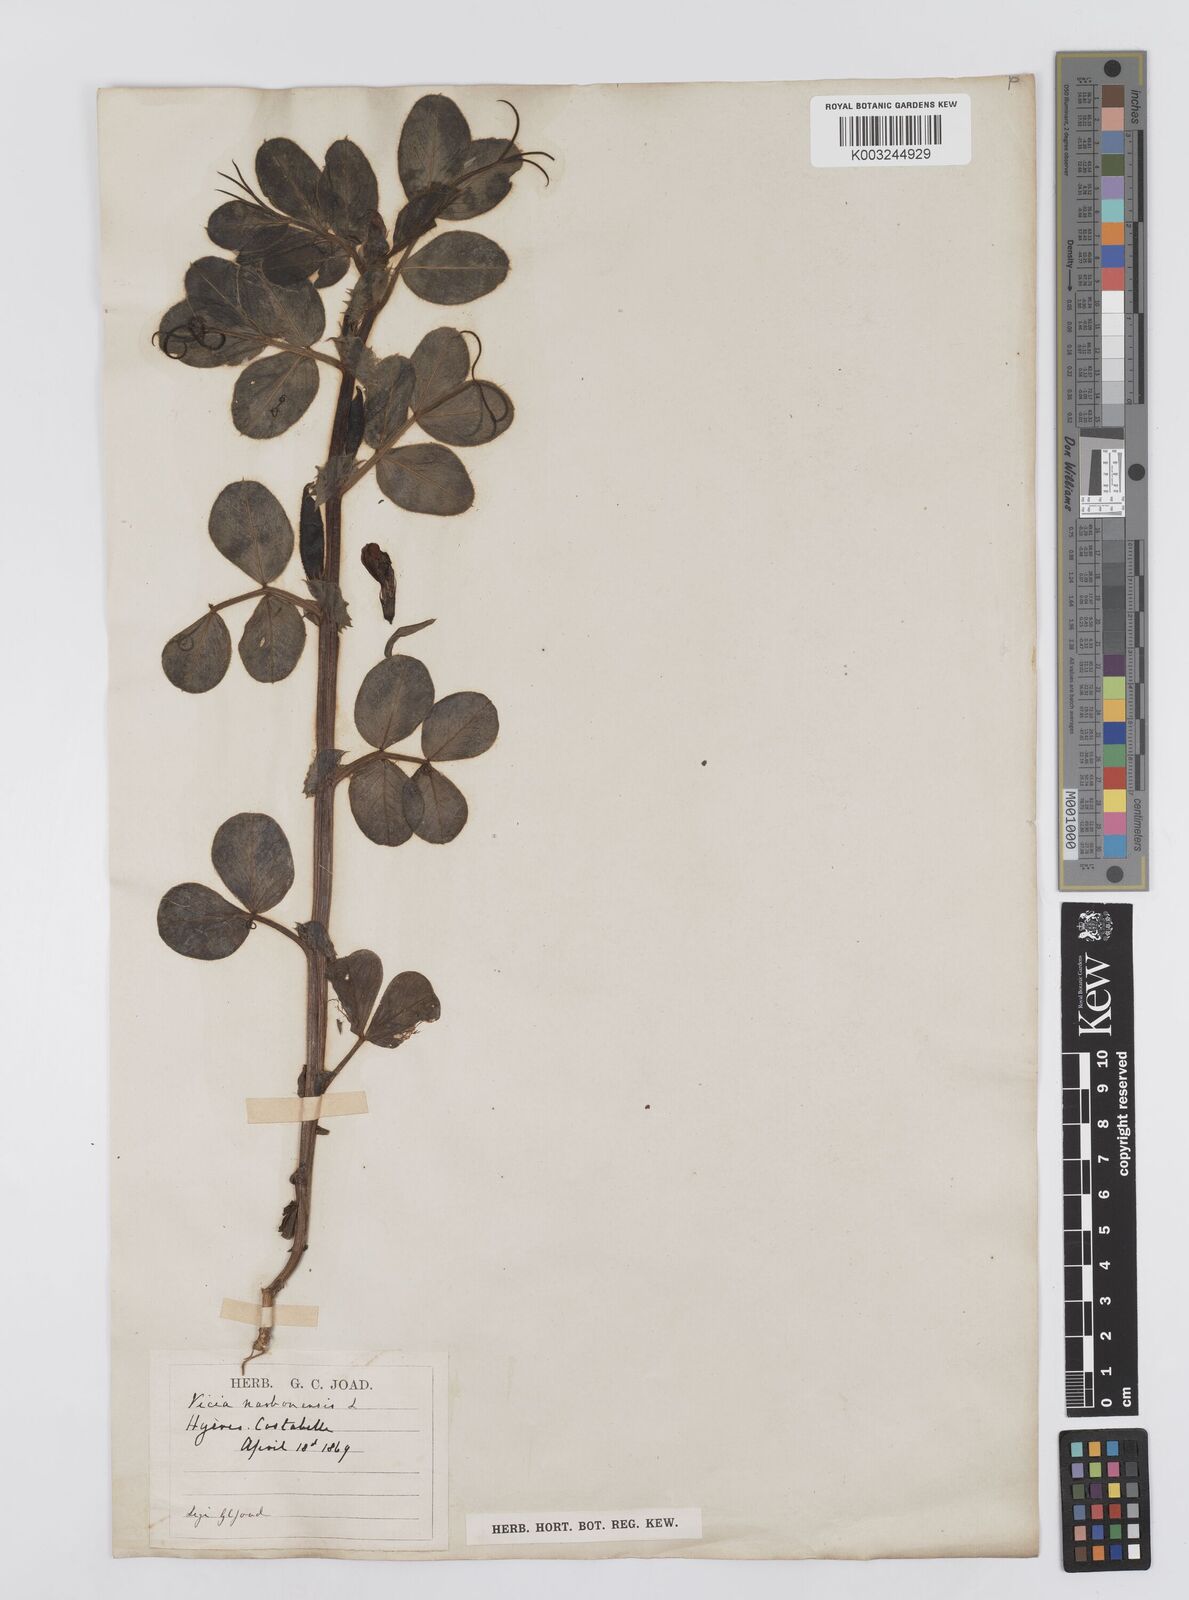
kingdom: Plantae
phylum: Tracheophyta
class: Magnoliopsida
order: Fabales
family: Fabaceae
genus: Vicia
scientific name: Vicia narbonensis
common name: Narbonne vetch
